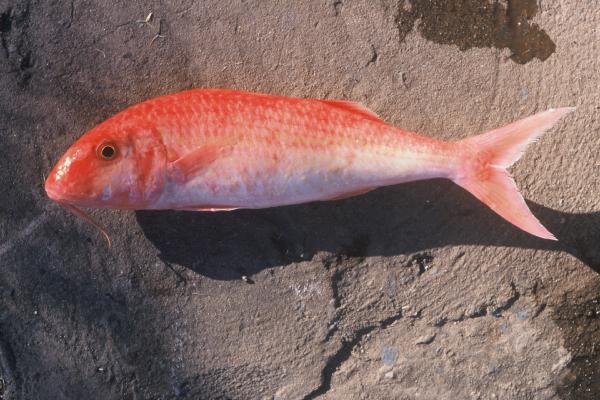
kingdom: Animalia
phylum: Chordata
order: Perciformes
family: Mullidae
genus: Mulloidichthys
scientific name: Mulloidichthys flavolineatus
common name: Yellowstripe goatfish
